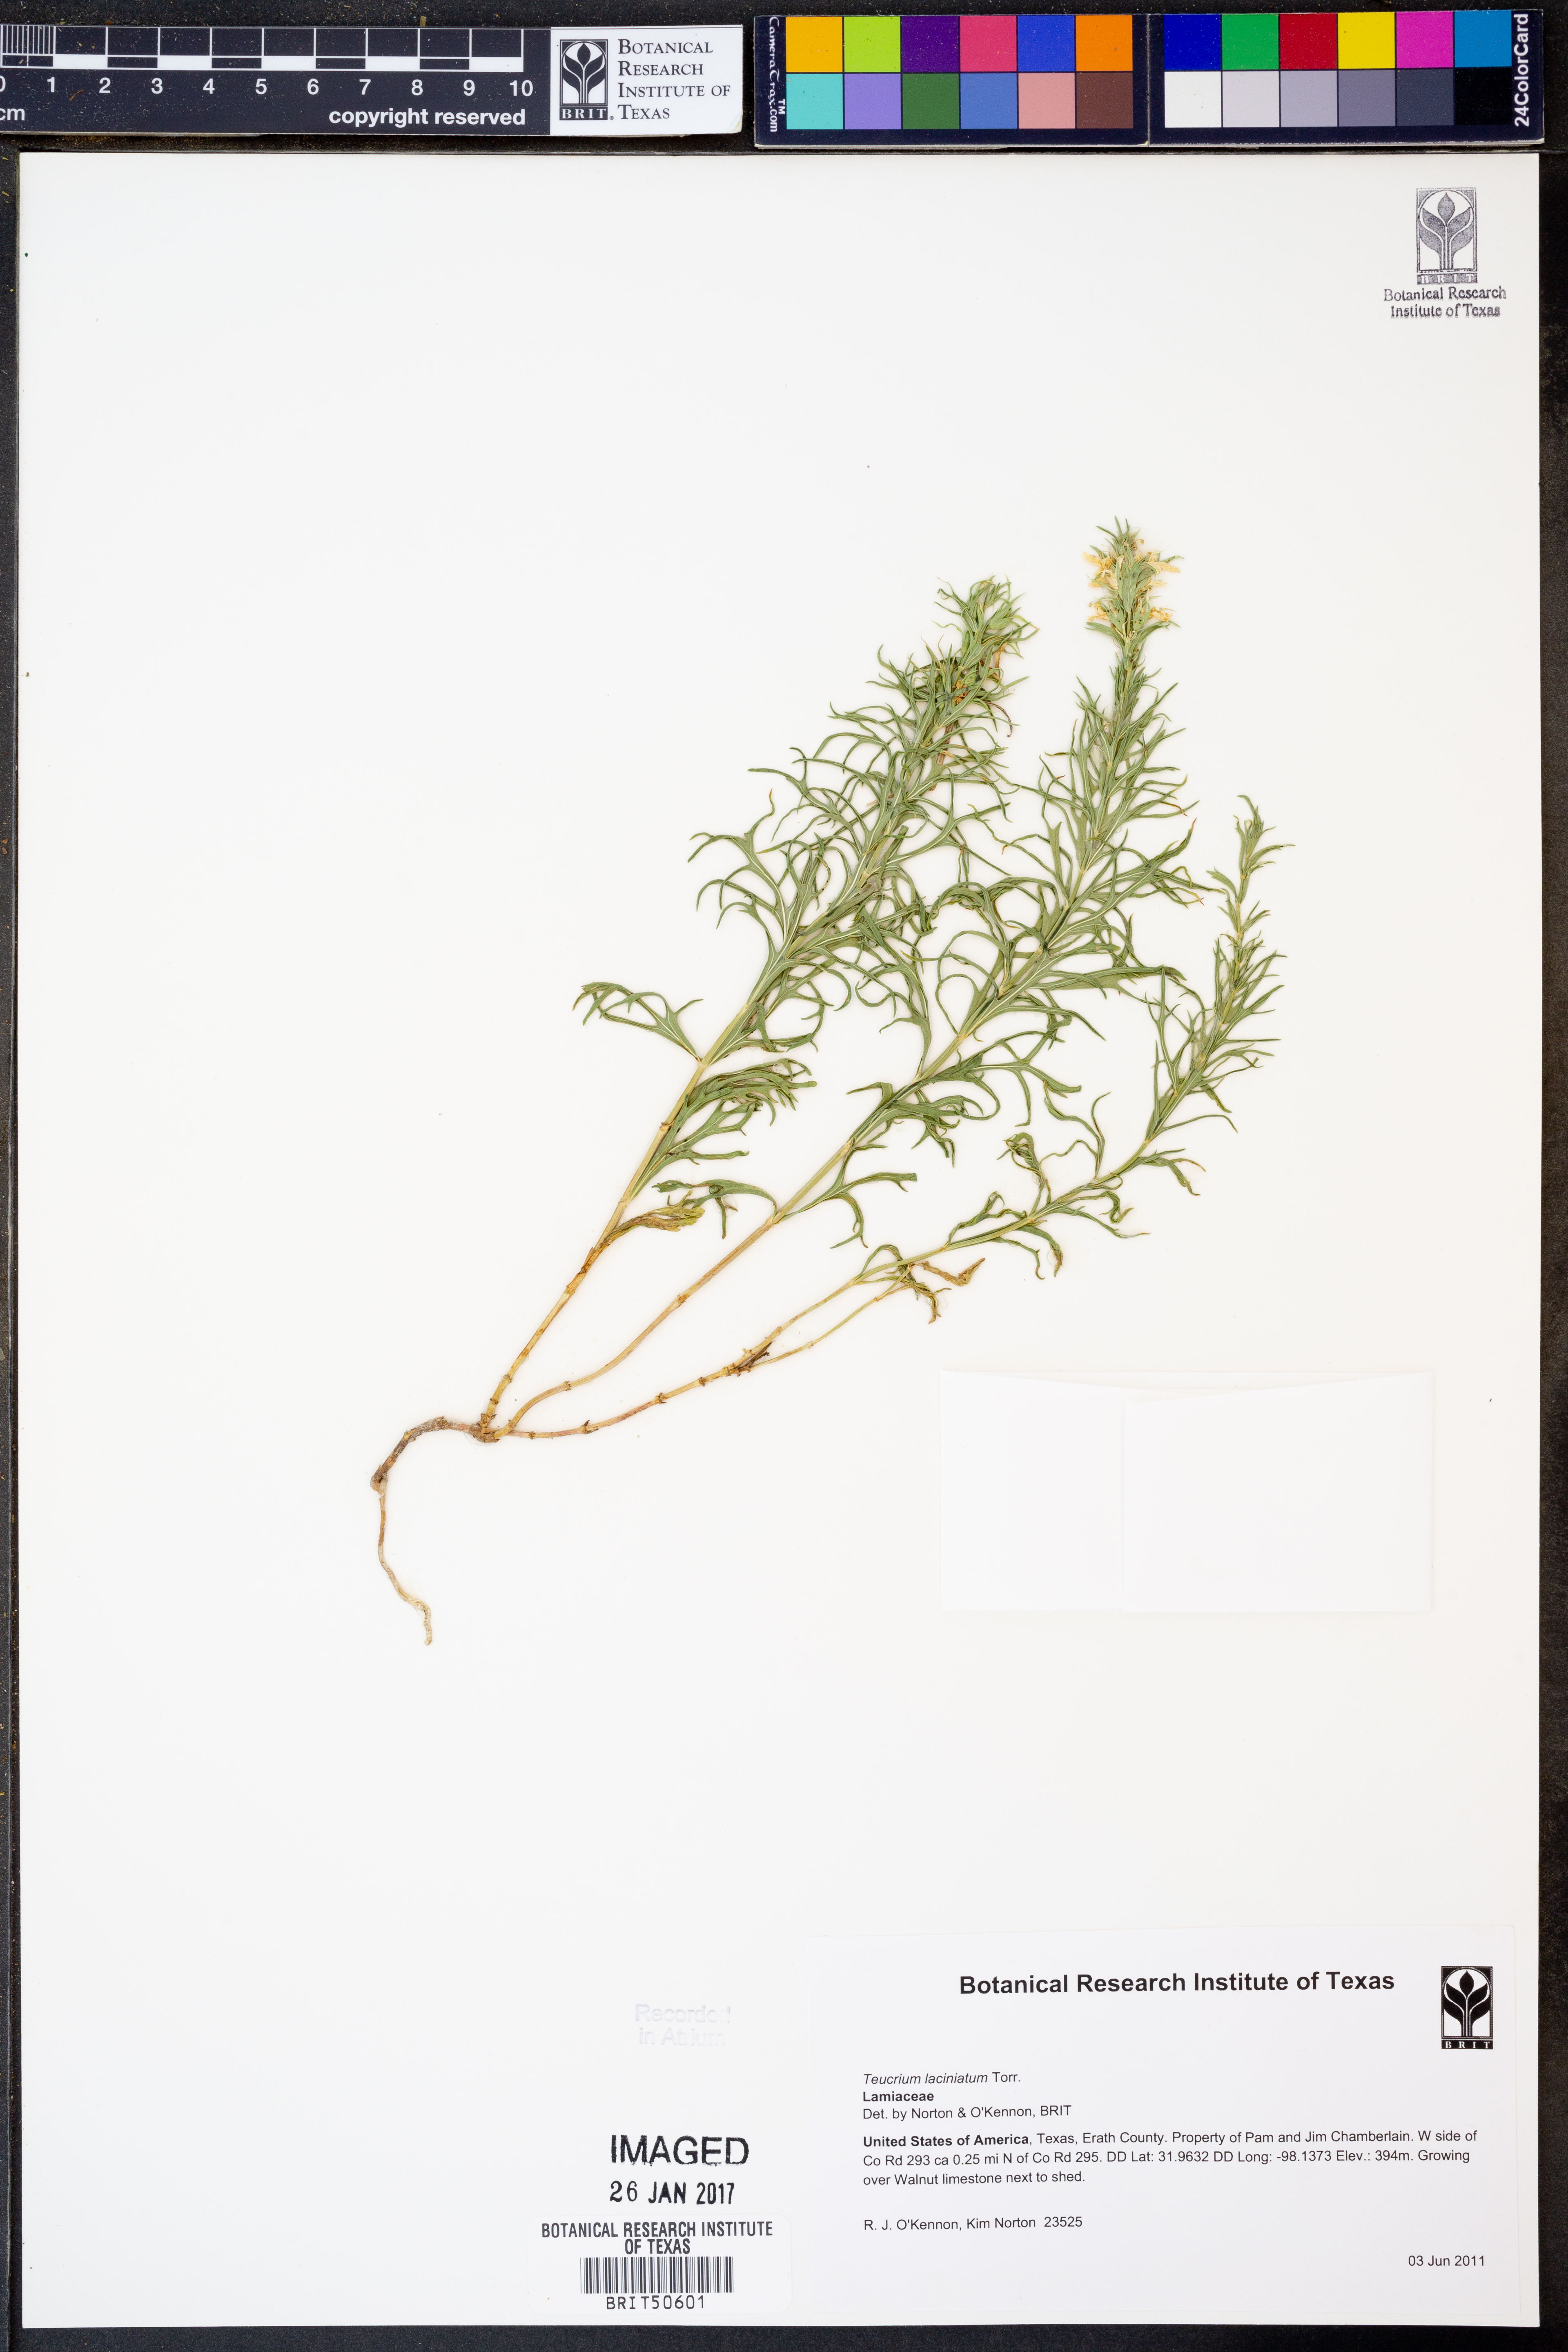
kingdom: Plantae
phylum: Tracheophyta
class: Magnoliopsida
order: Lamiales
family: Lamiaceae
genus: Teucrium
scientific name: Teucrium laciniatum
